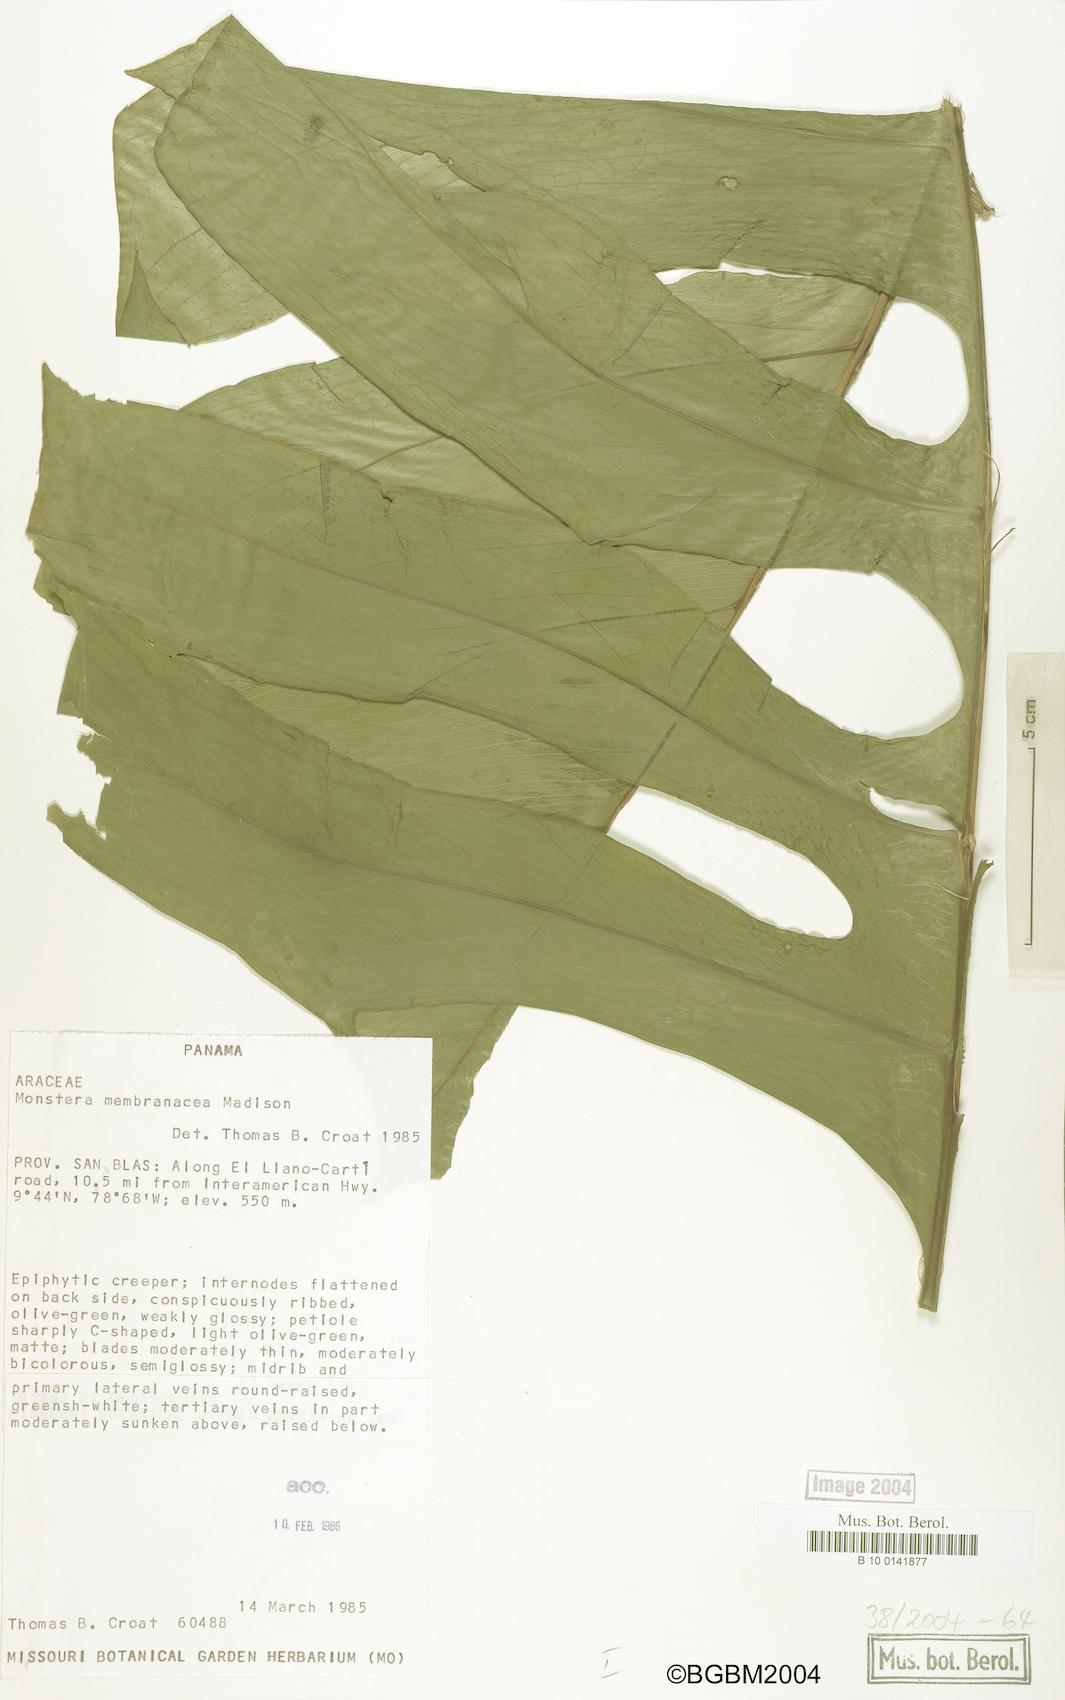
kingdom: Plantae
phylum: Tracheophyta
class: Liliopsida
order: Alismatales
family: Araceae
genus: Monstera
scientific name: Monstera membranacea
